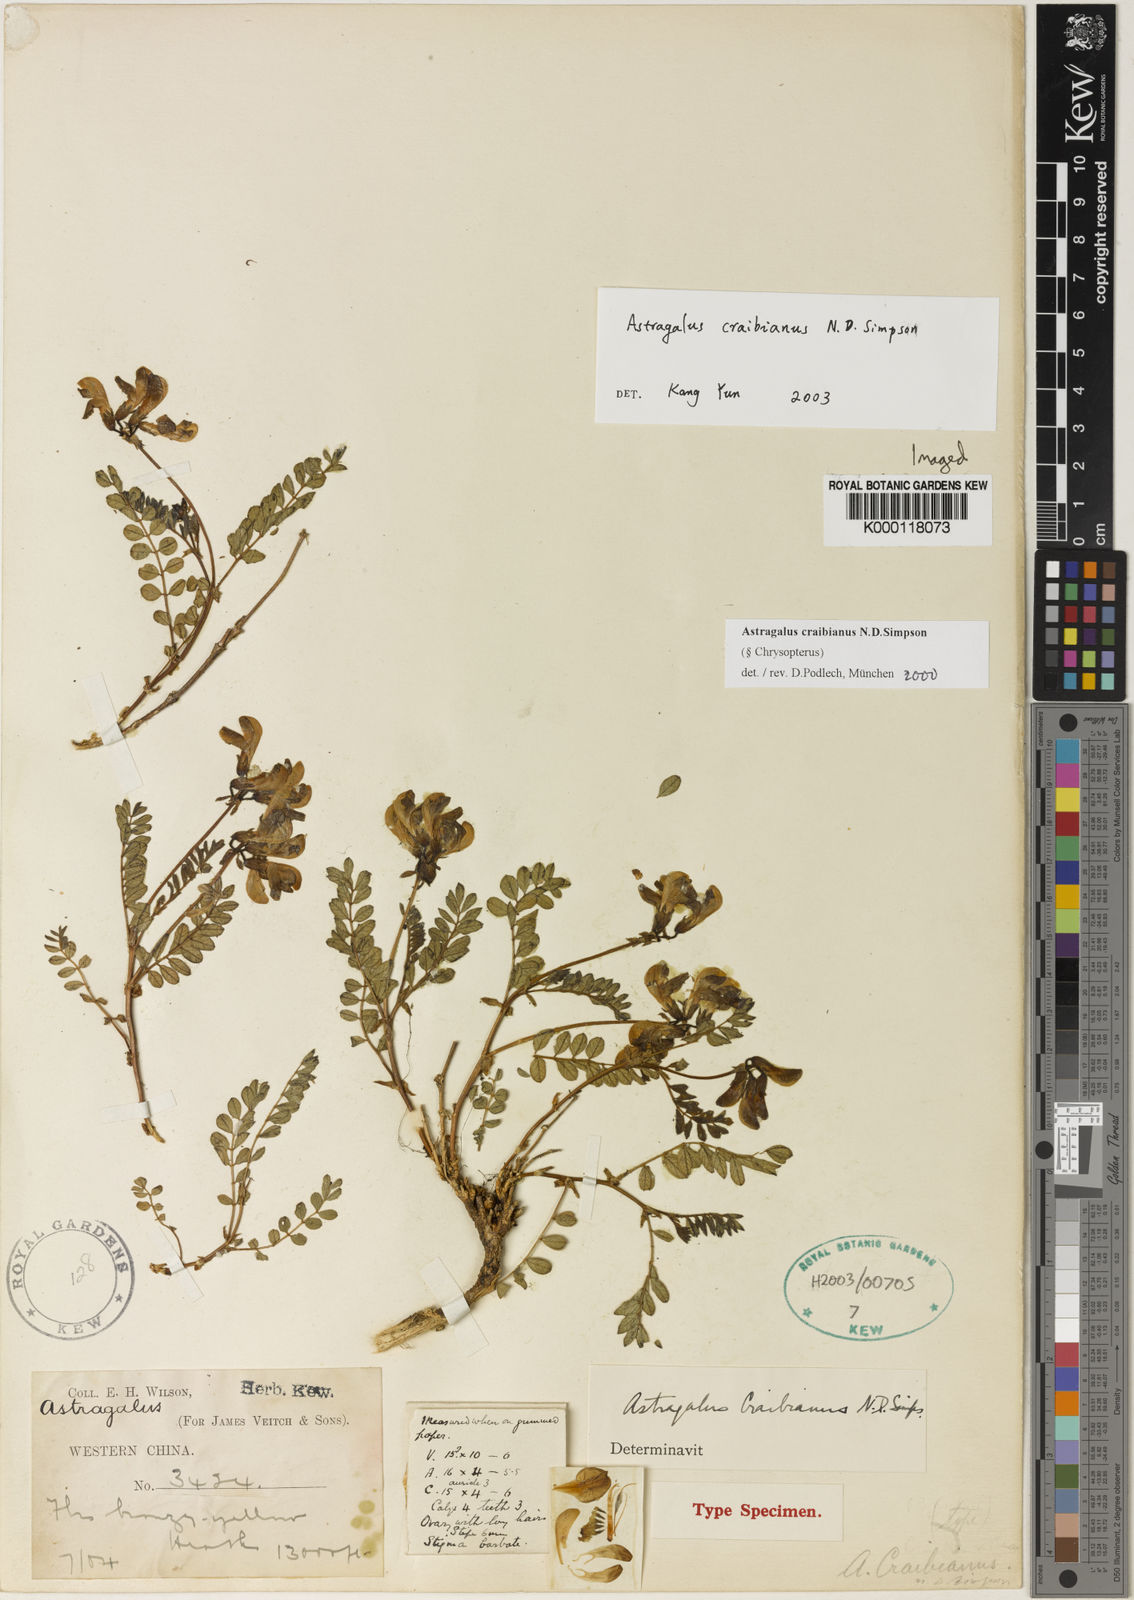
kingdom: Plantae
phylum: Tracheophyta
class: Magnoliopsida
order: Fabales
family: Fabaceae
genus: Astragalus
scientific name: Astragalus
